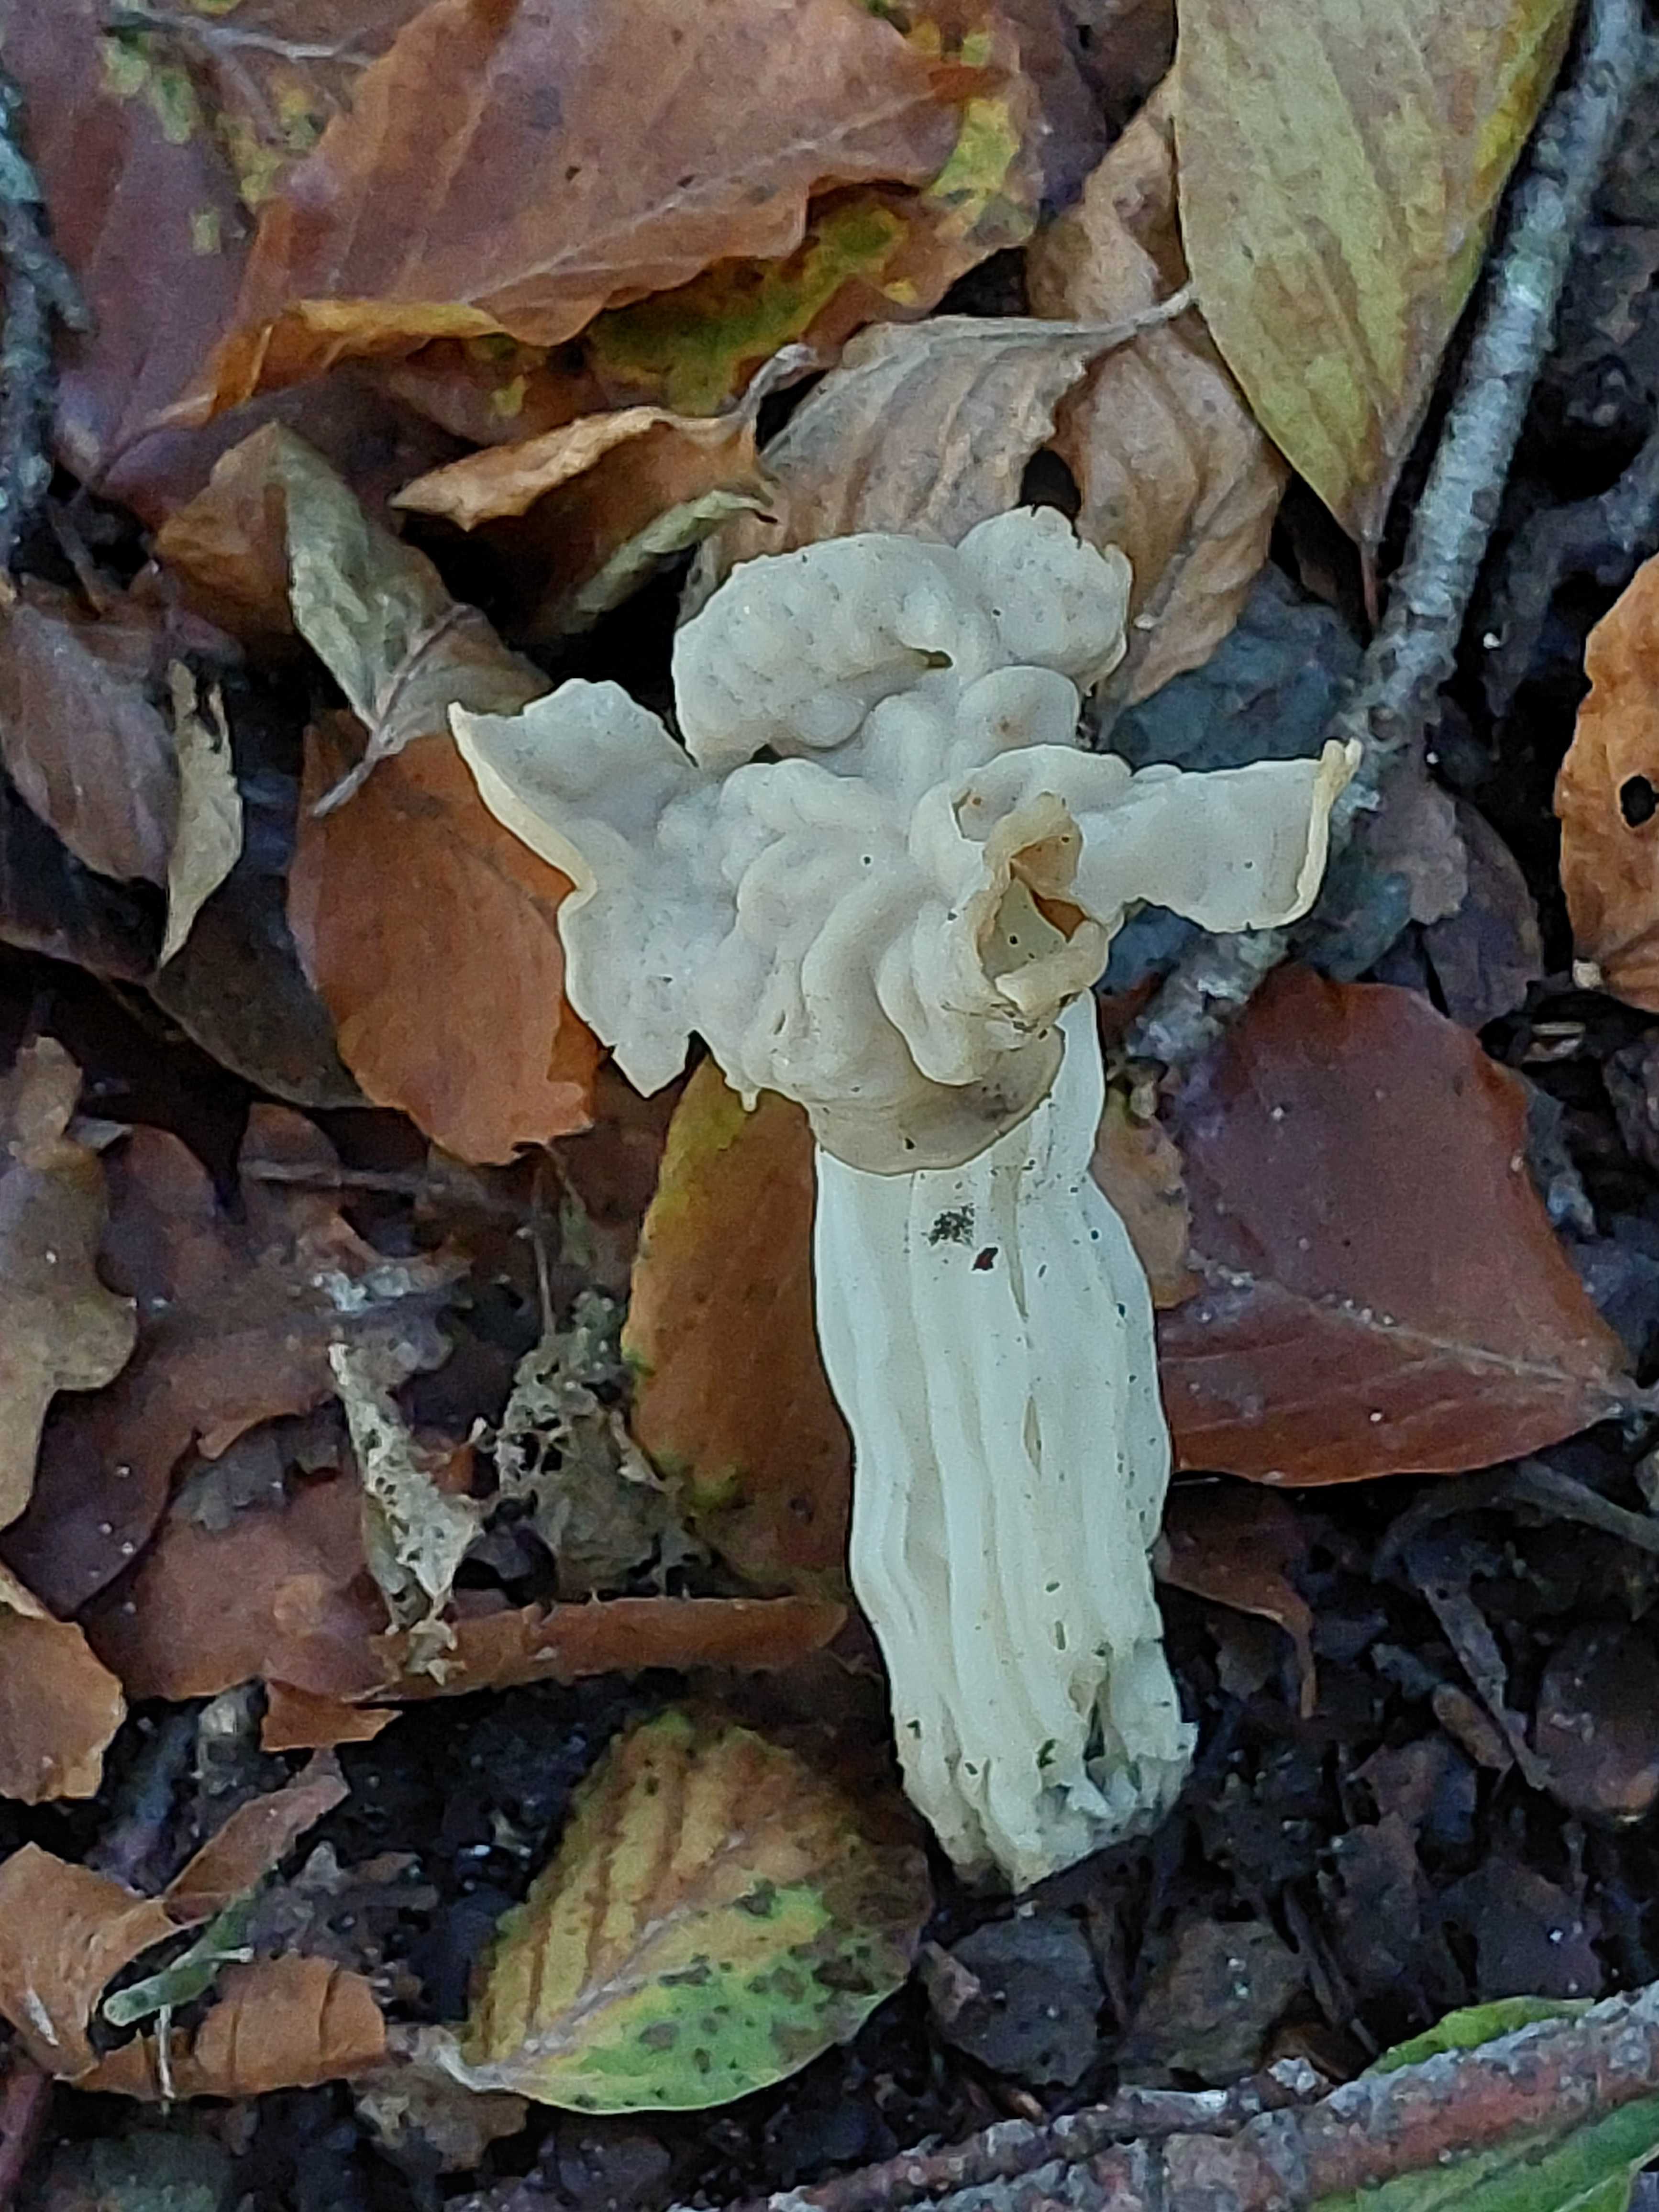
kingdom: Fungi
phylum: Ascomycota
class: Pezizomycetes
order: Pezizales
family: Helvellaceae
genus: Helvella
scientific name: Helvella crispa
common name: kruset foldhat
